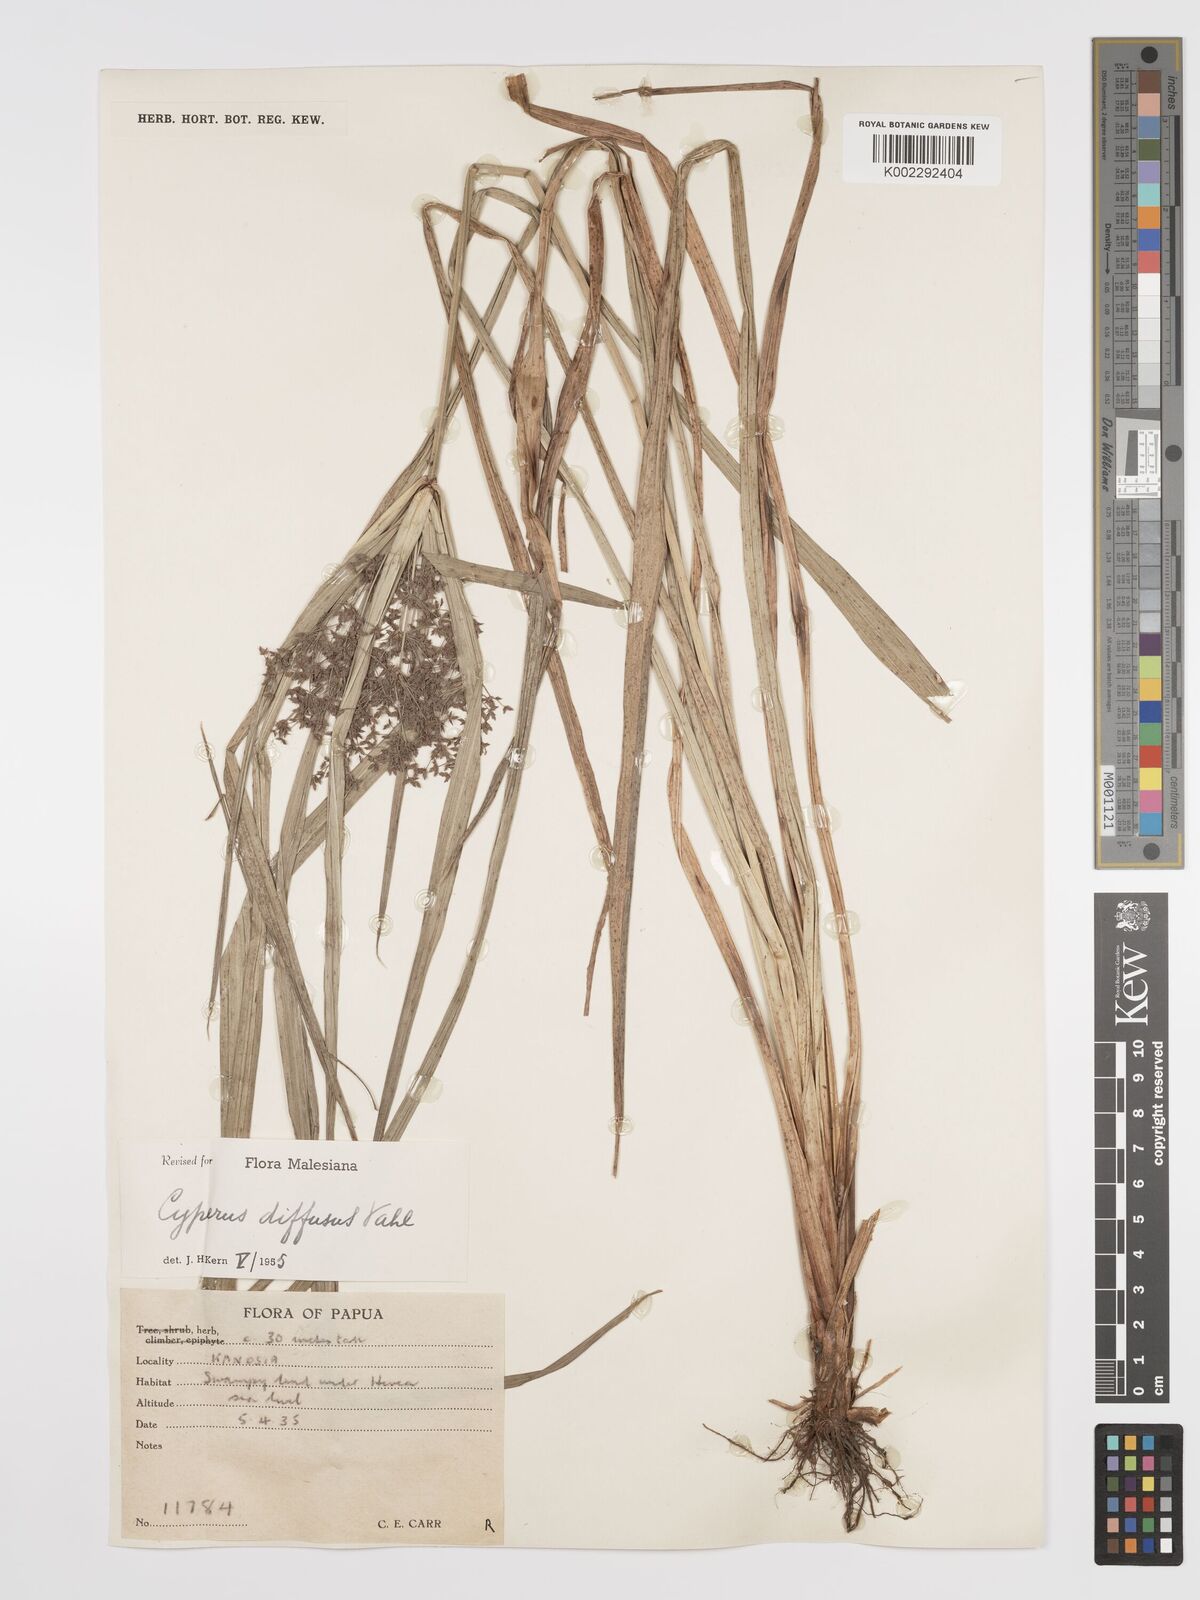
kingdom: Plantae
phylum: Tracheophyta
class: Liliopsida
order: Poales
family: Cyperaceae
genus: Cyperus
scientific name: Cyperus diffusus
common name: Dwarf umbrella grass
